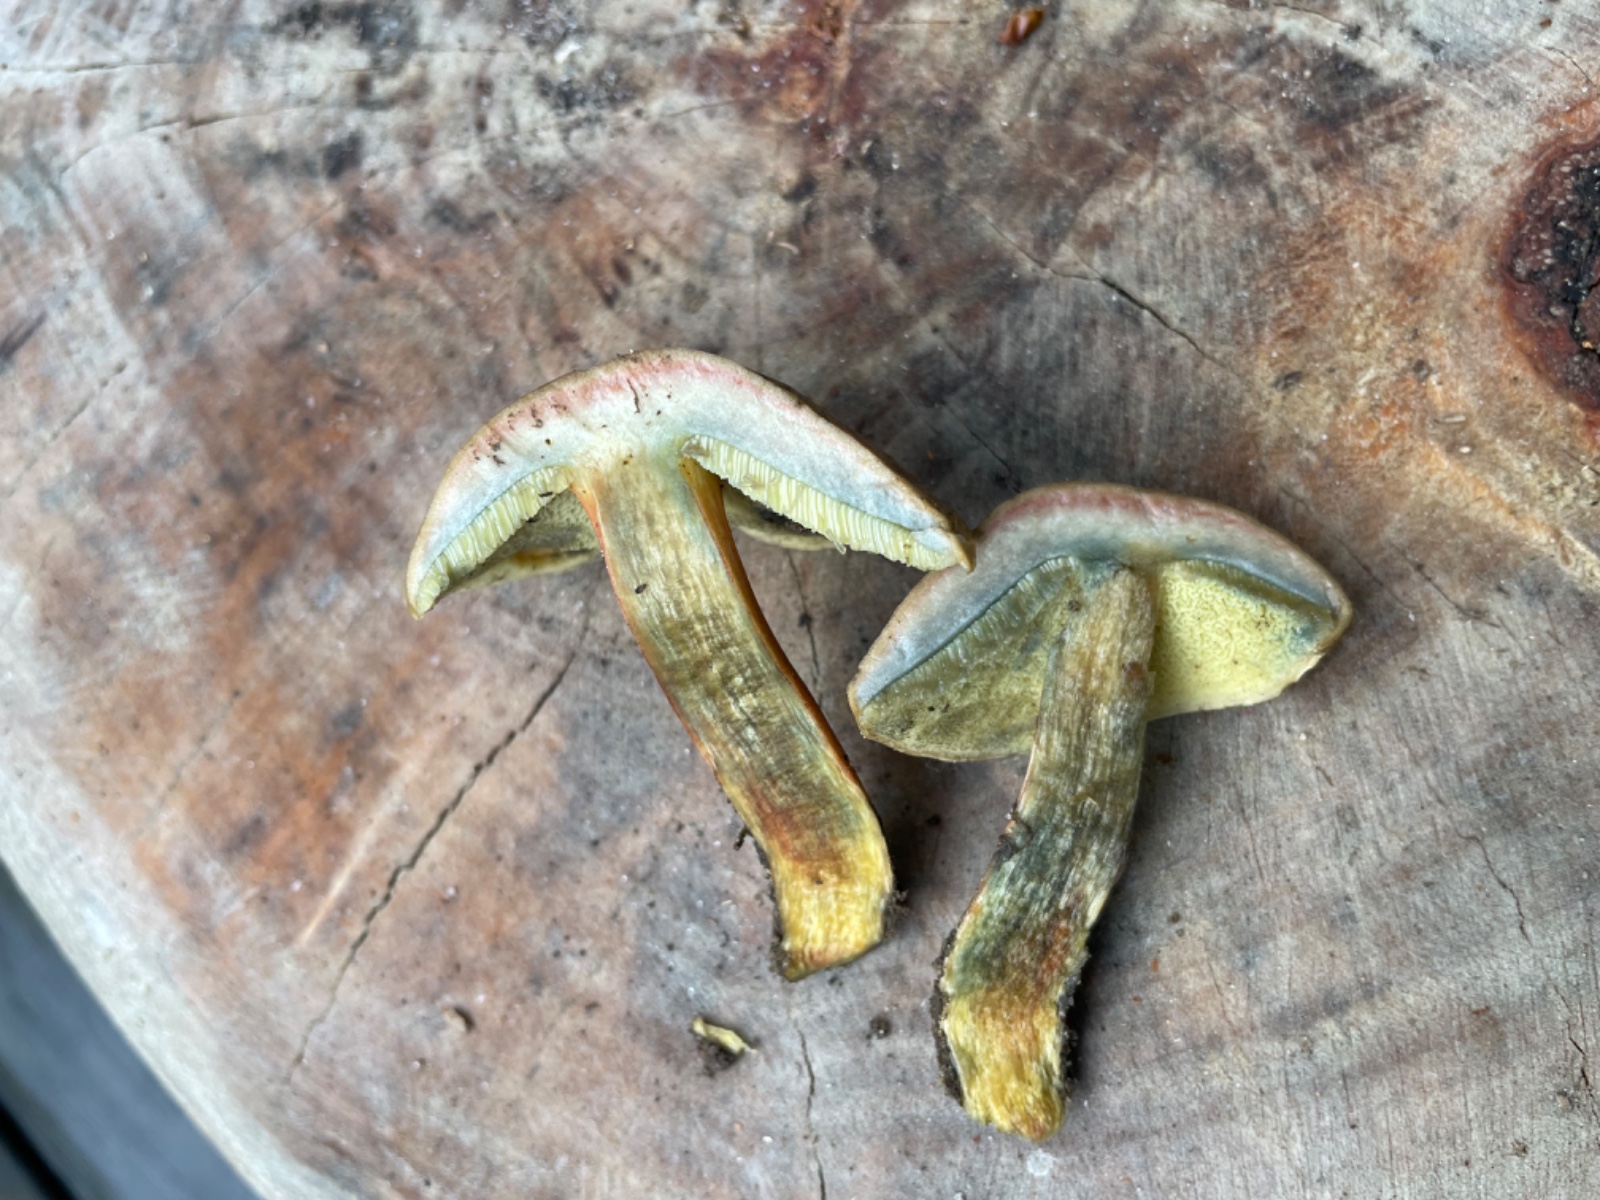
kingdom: Fungi
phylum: Basidiomycota
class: Agaricomycetes
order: Boletales
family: Boletaceae
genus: Hortiboletus
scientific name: Hortiboletus bubalinus
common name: aurora-rørhat
